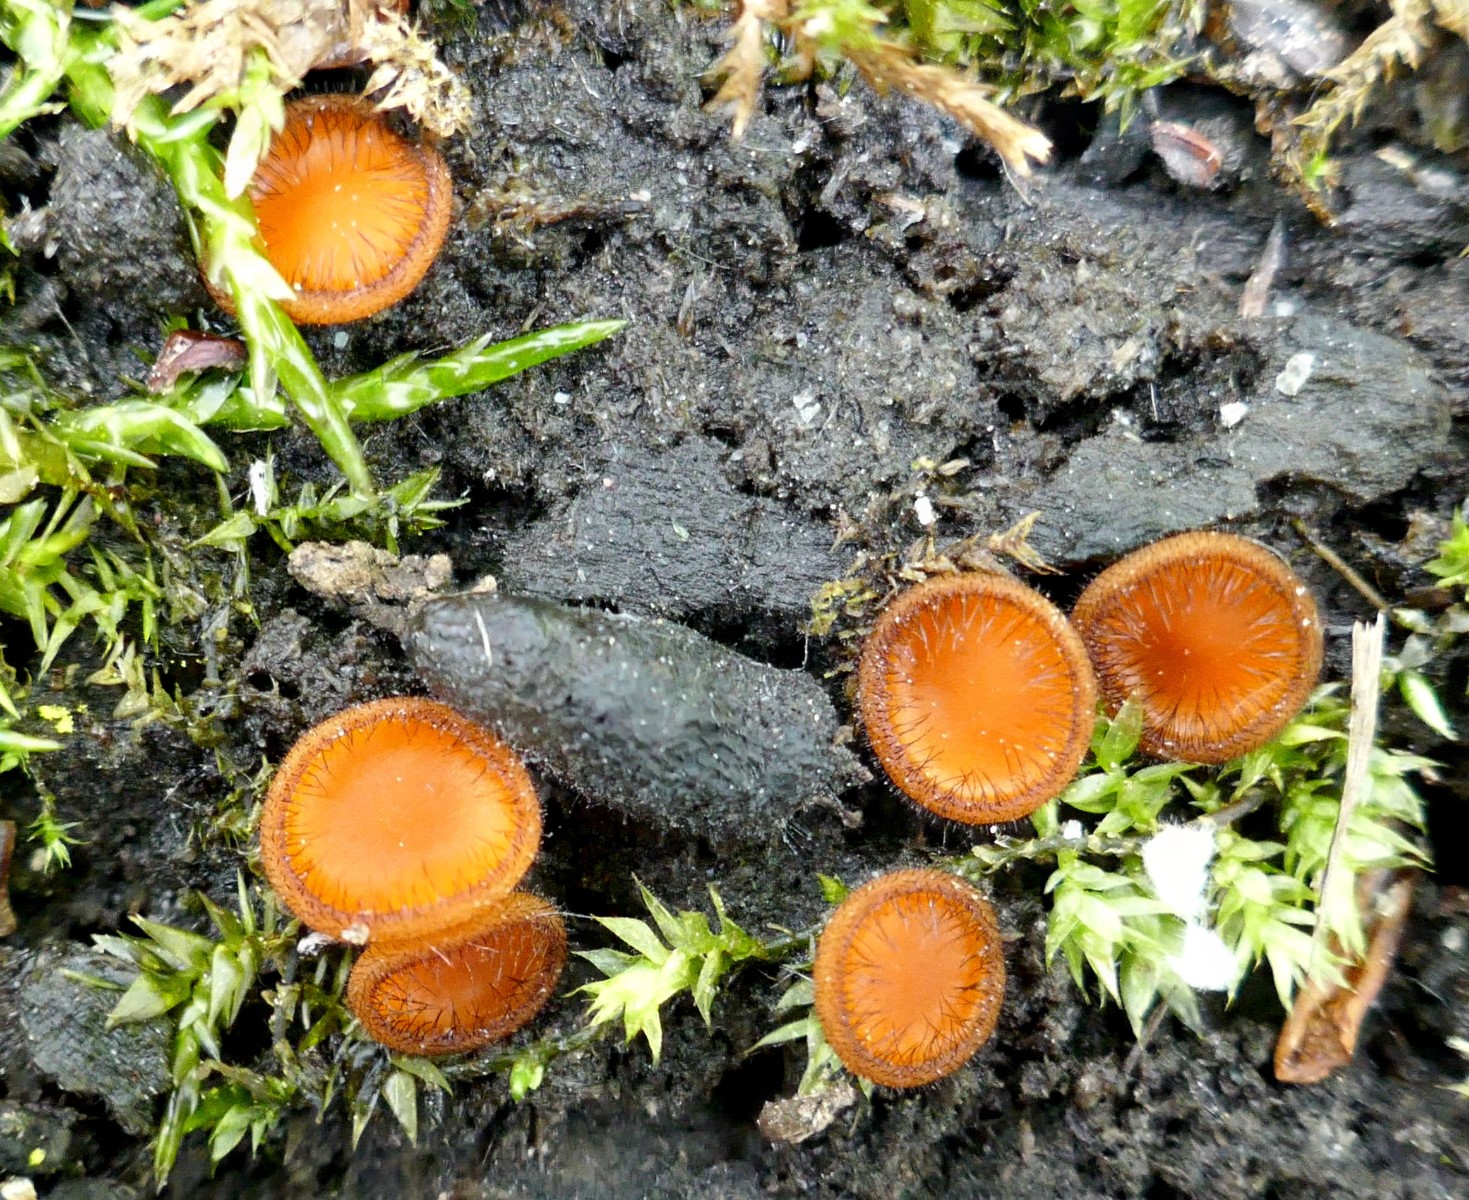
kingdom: Fungi
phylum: Ascomycota
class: Pezizomycetes
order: Pezizales
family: Pyronemataceae
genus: Scutellinia
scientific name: Scutellinia scutellata
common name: frynset skjoldbæger
